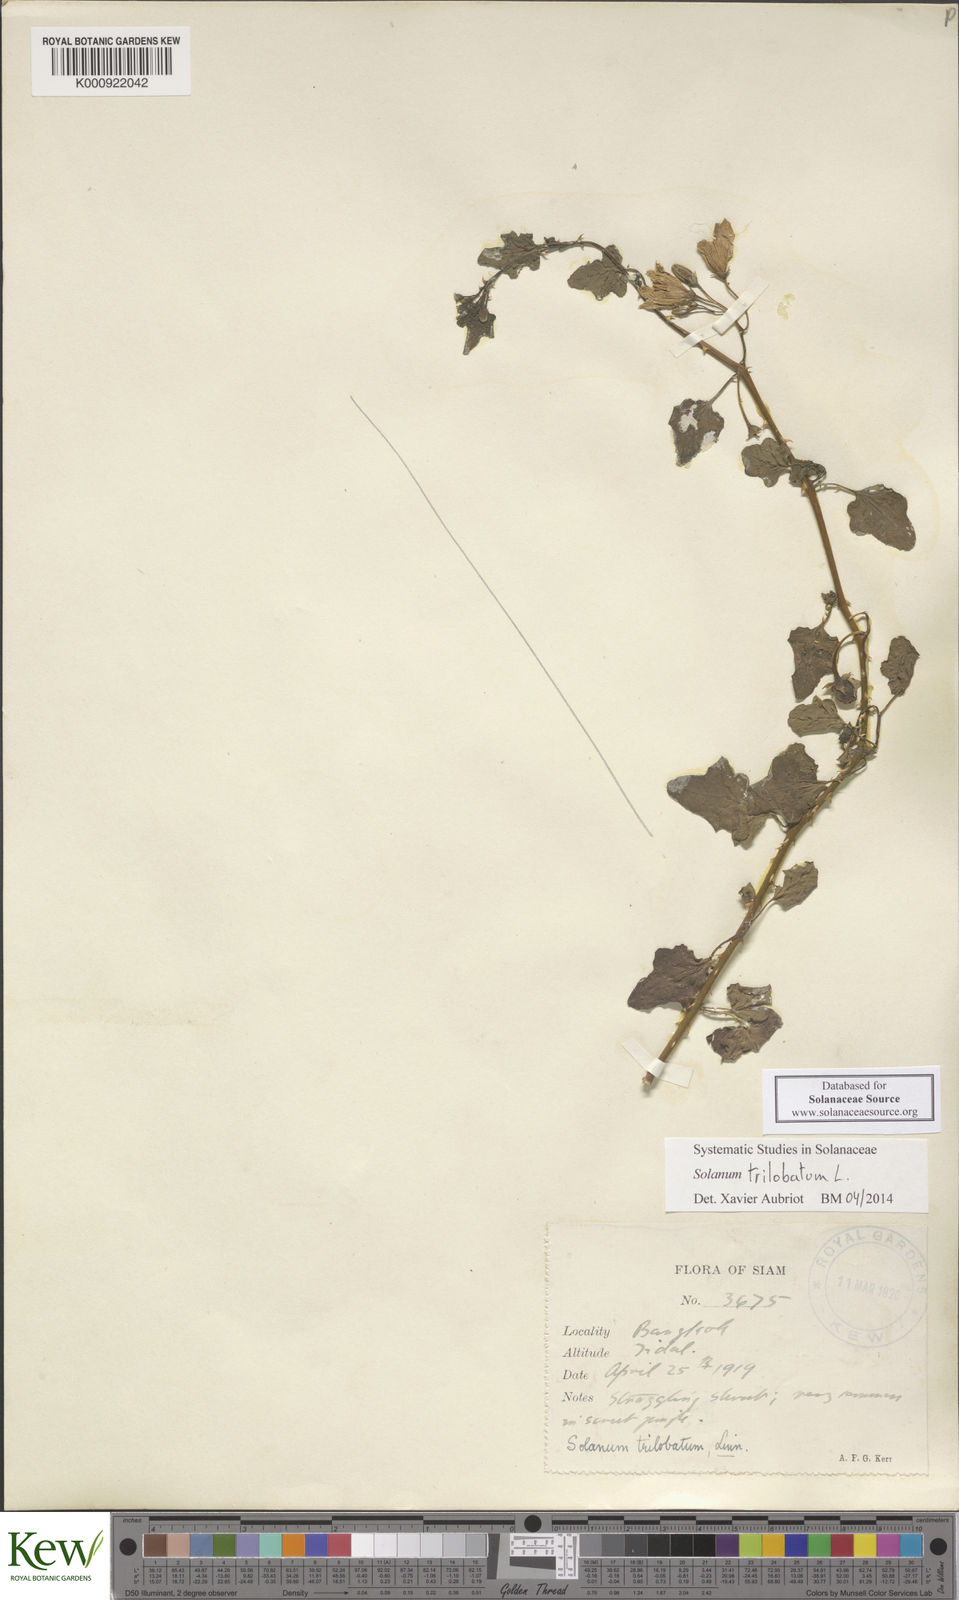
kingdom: Plantae
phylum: Tracheophyta
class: Magnoliopsida
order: Solanales
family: Solanaceae
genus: Solanum
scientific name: Solanum trilobatum
